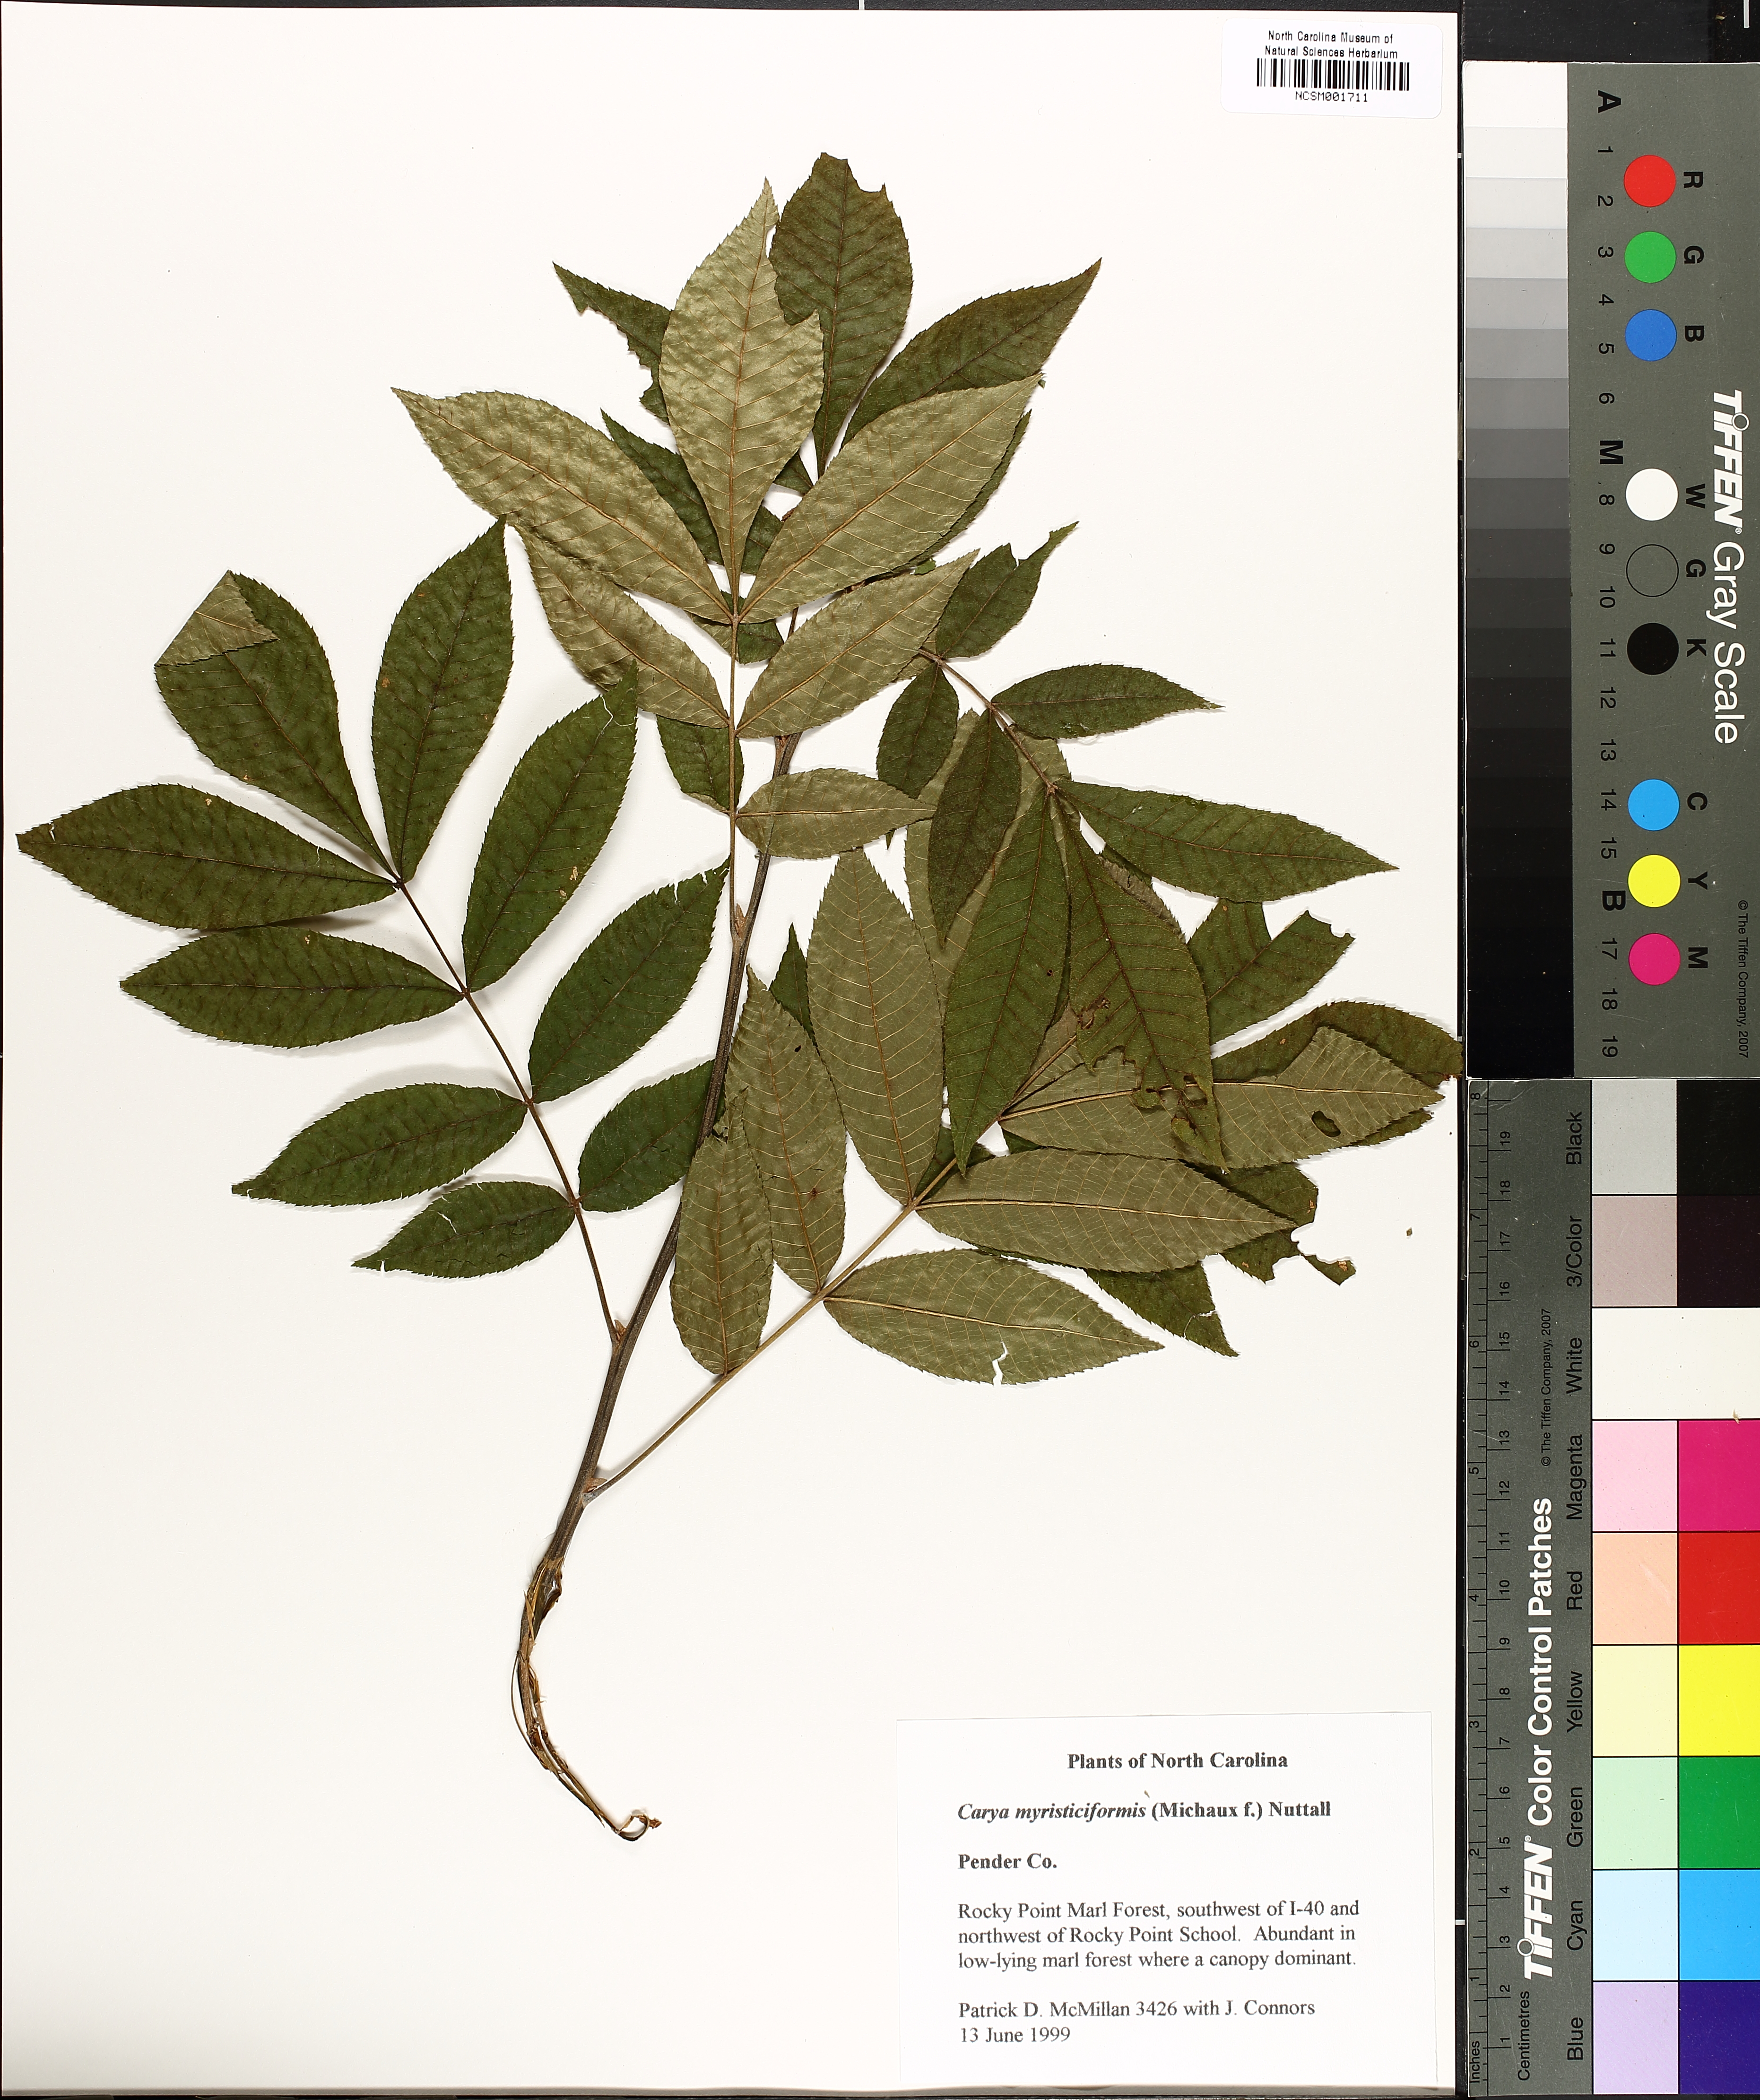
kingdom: Plantae
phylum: Tracheophyta
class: Magnoliopsida
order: Fagales
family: Juglandaceae
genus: Carya
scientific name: Carya myristiciformis
